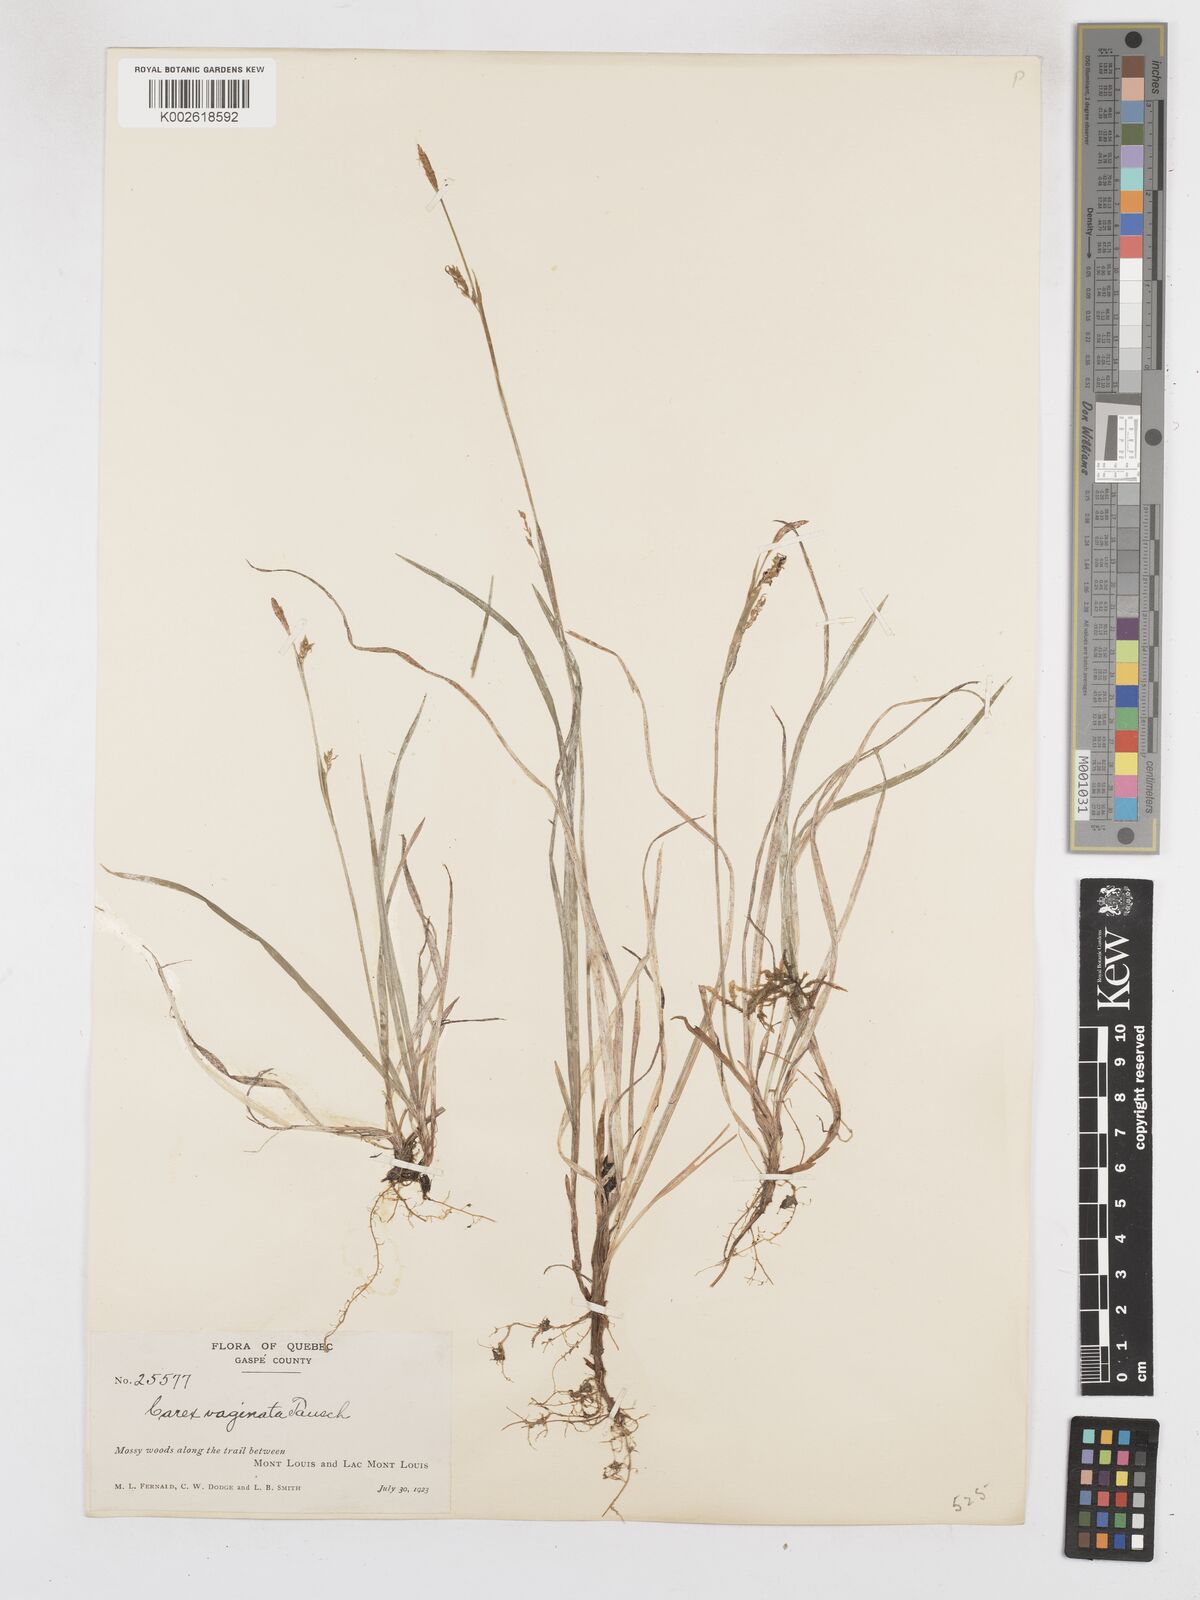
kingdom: Plantae
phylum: Tracheophyta
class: Liliopsida
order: Poales
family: Cyperaceae
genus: Carex
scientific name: Carex vaginata
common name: Sheathed sedge
